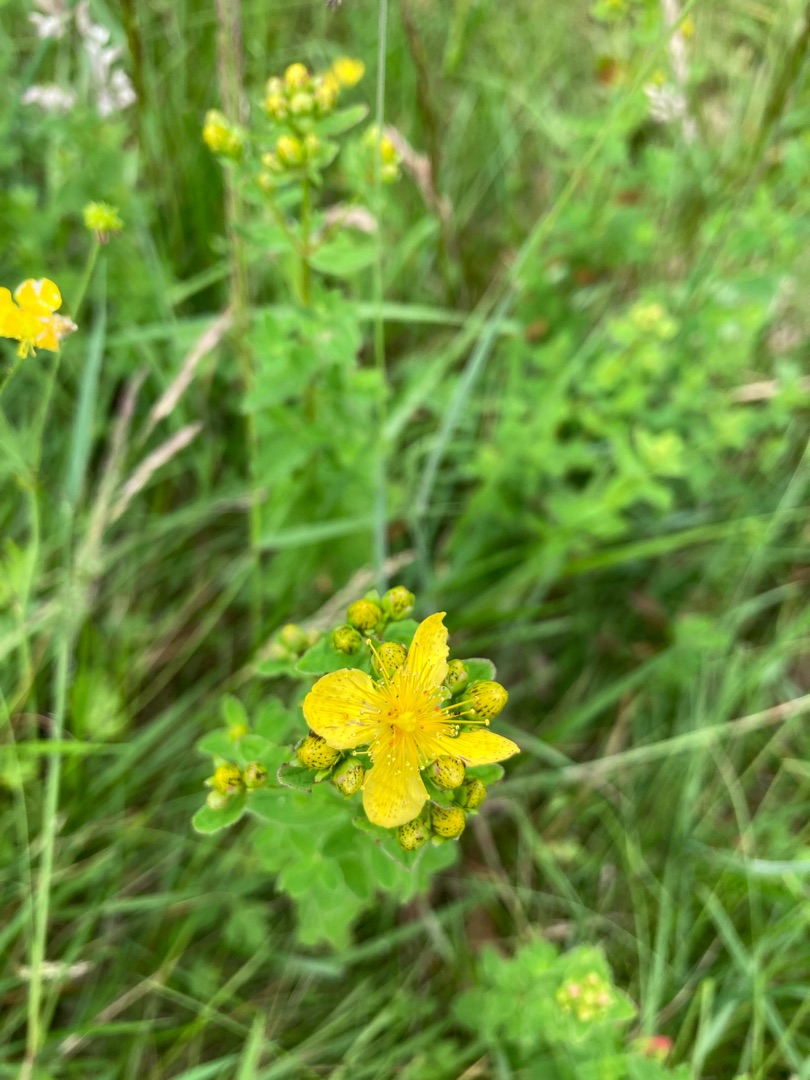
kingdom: Plantae
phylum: Tracheophyta
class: Magnoliopsida
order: Malpighiales
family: Hypericaceae
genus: Hypericum
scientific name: Hypericum maculatum
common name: Kantet perikon
